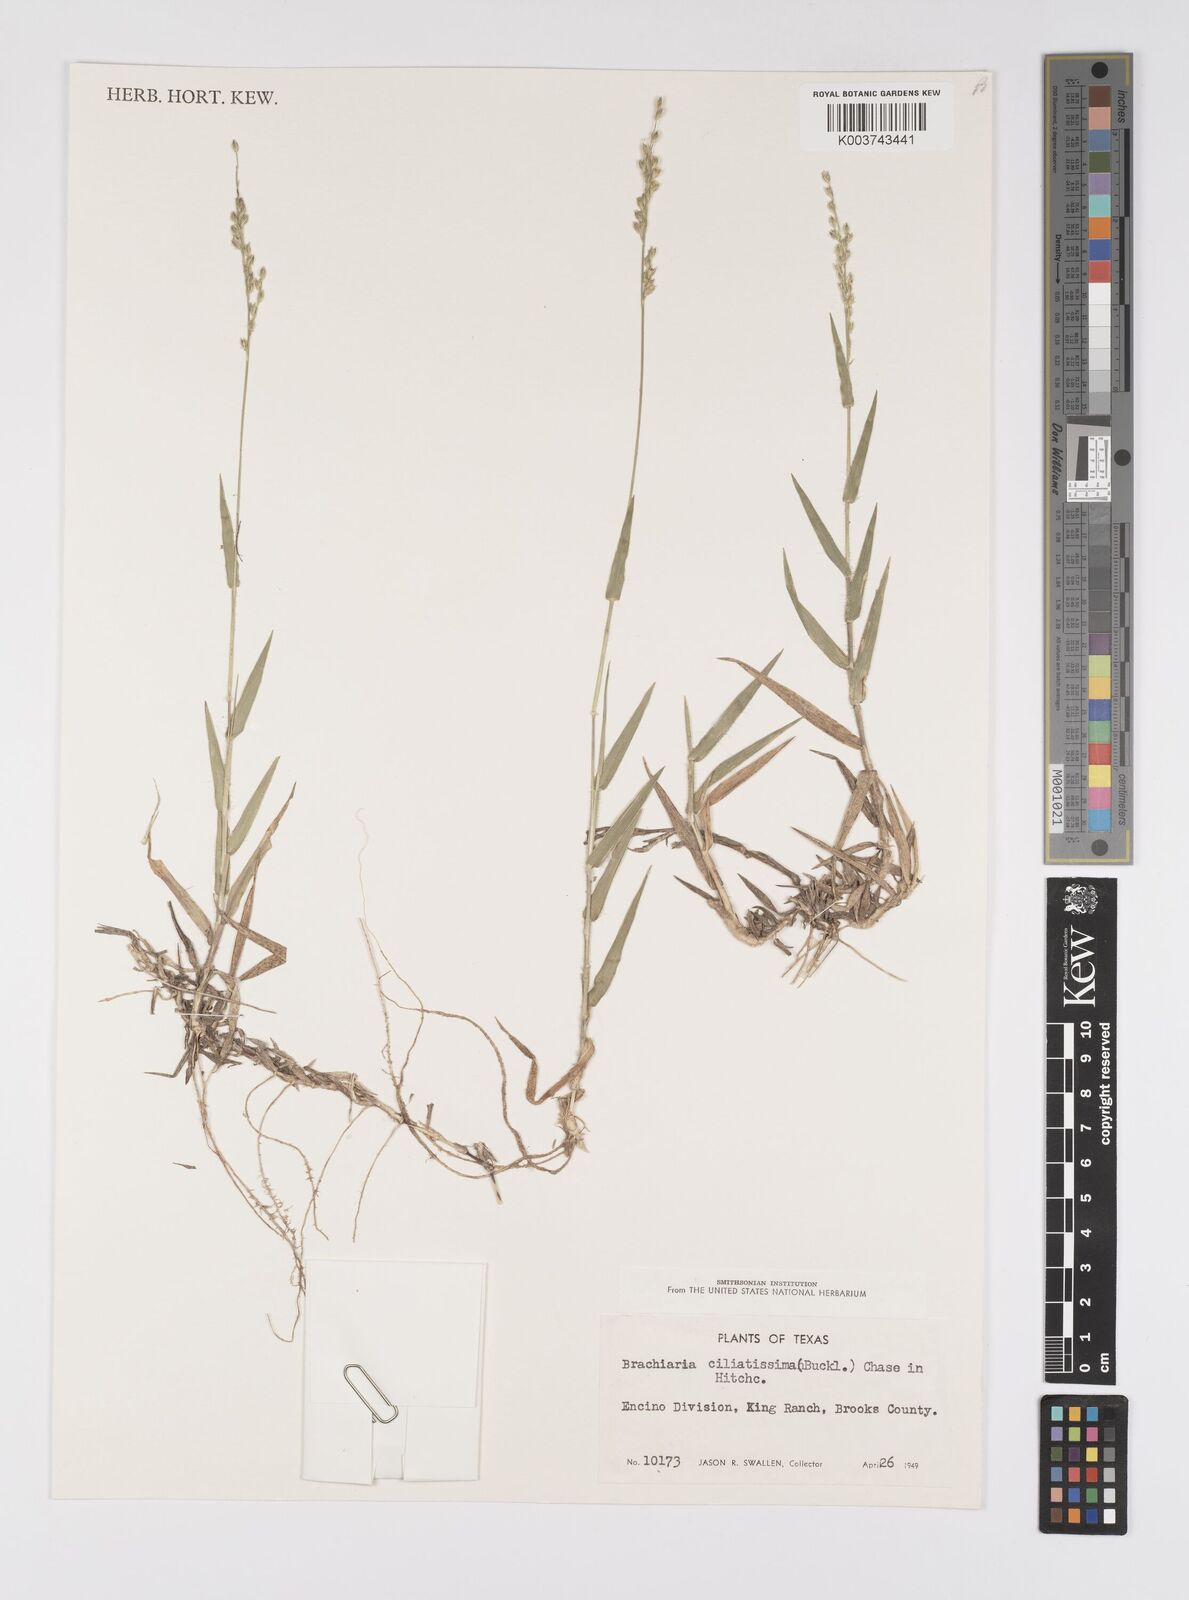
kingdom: Plantae
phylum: Tracheophyta
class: Liliopsida
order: Poales
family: Poaceae
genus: Urochloa
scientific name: Urochloa ciliatissima
